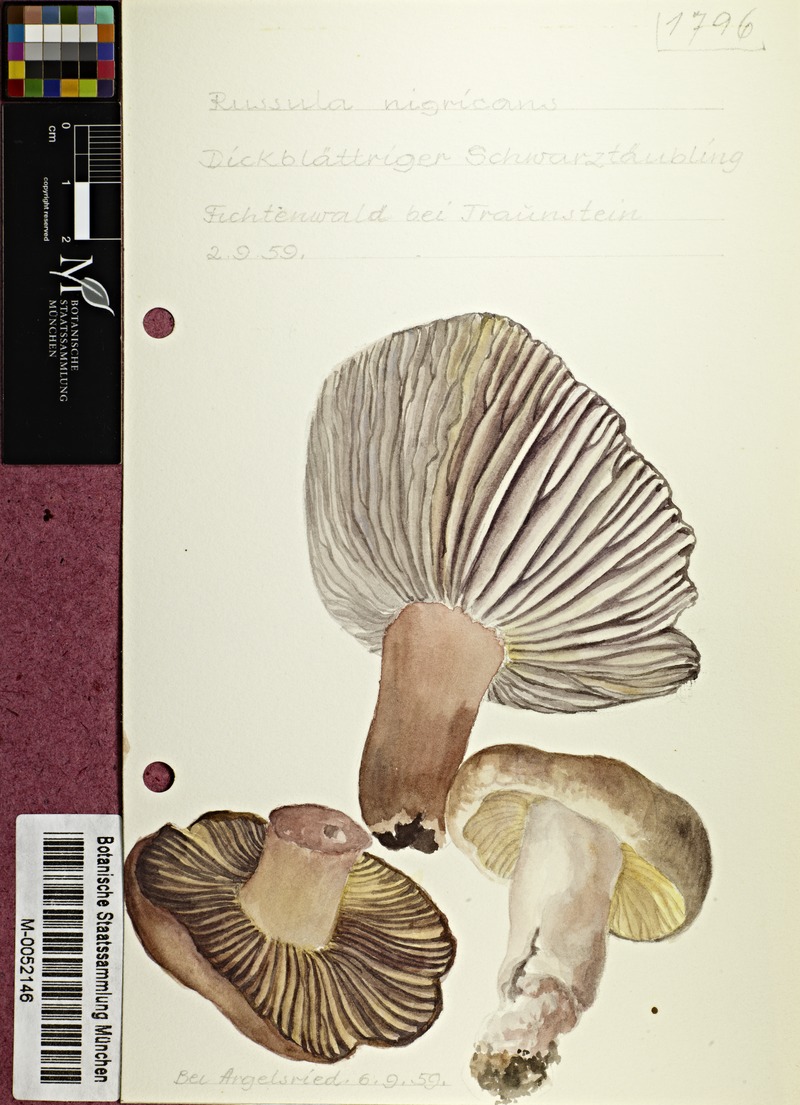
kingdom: Fungi
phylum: Basidiomycota
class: Agaricomycetes
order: Russulales
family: Russulaceae
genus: Russula
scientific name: Russula adusta
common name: Winecork brittlegill
